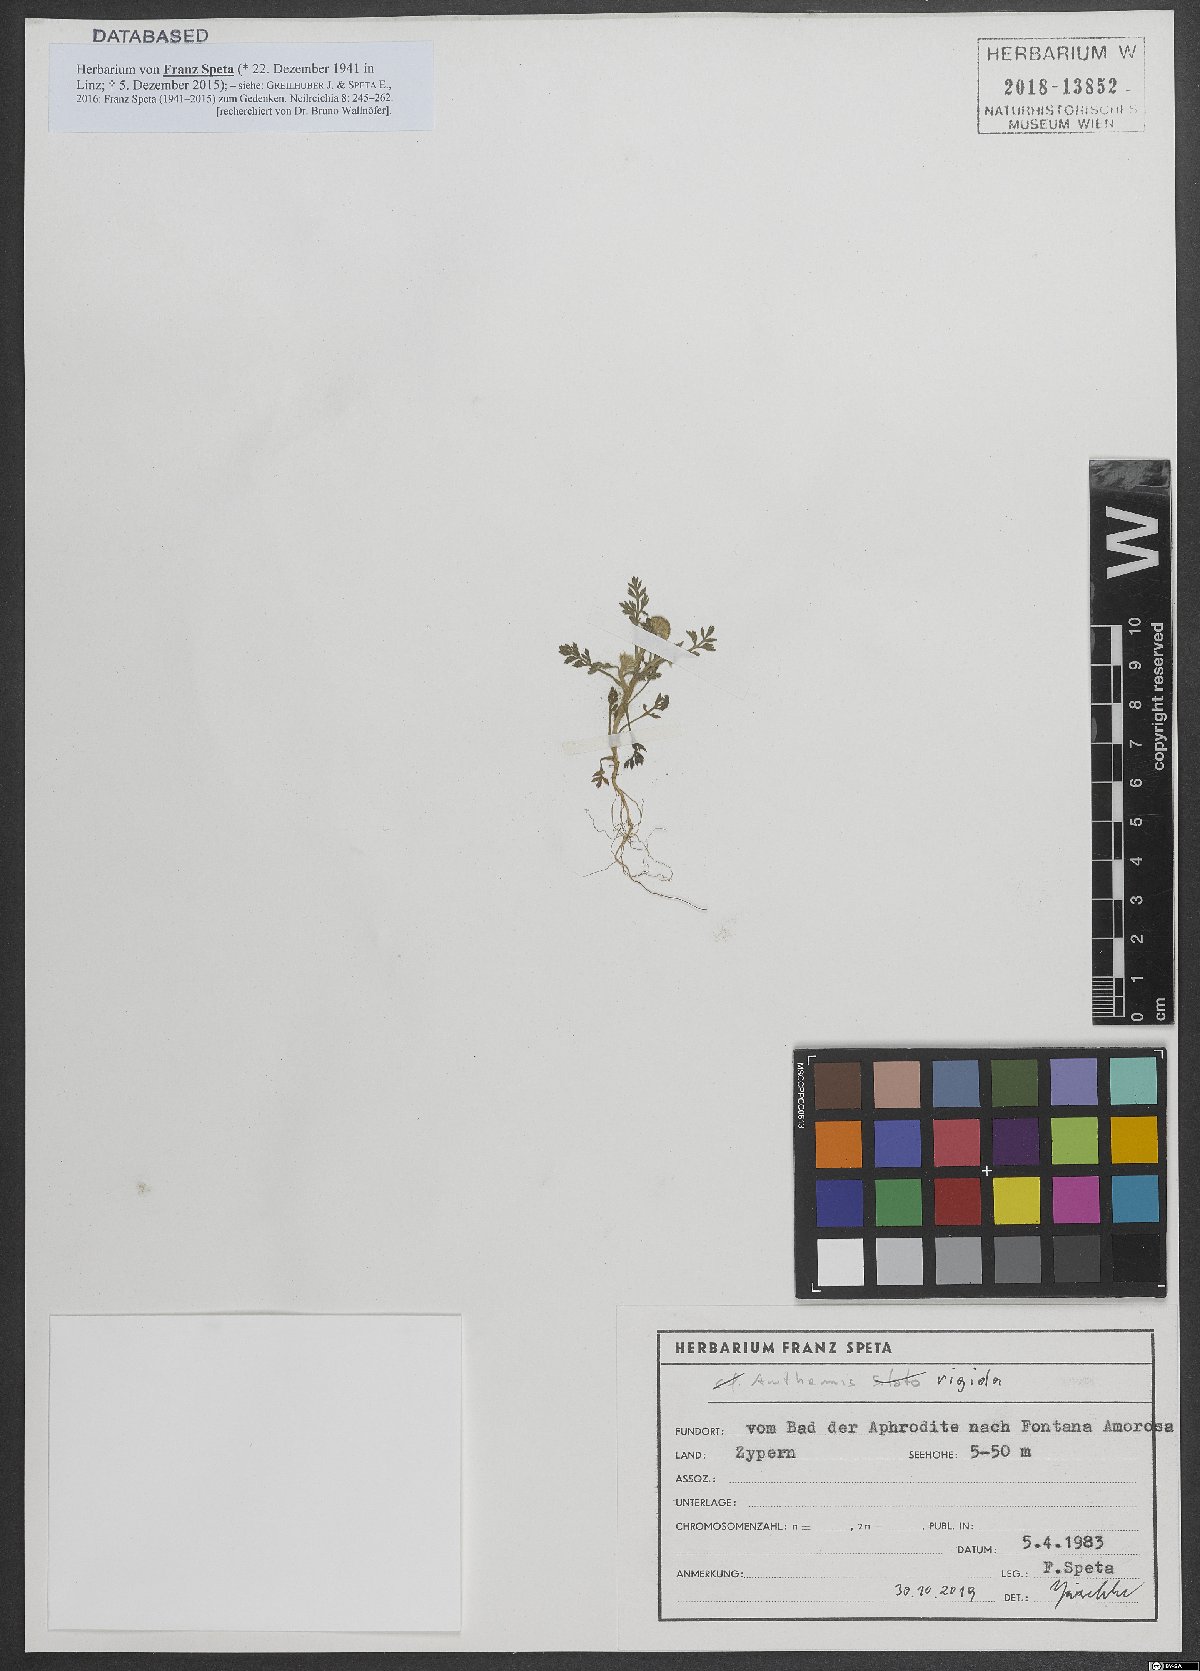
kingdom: Plantae
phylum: Tracheophyta
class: Magnoliopsida
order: Asterales
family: Asteraceae
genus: Anthemis
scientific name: Anthemis rigida
